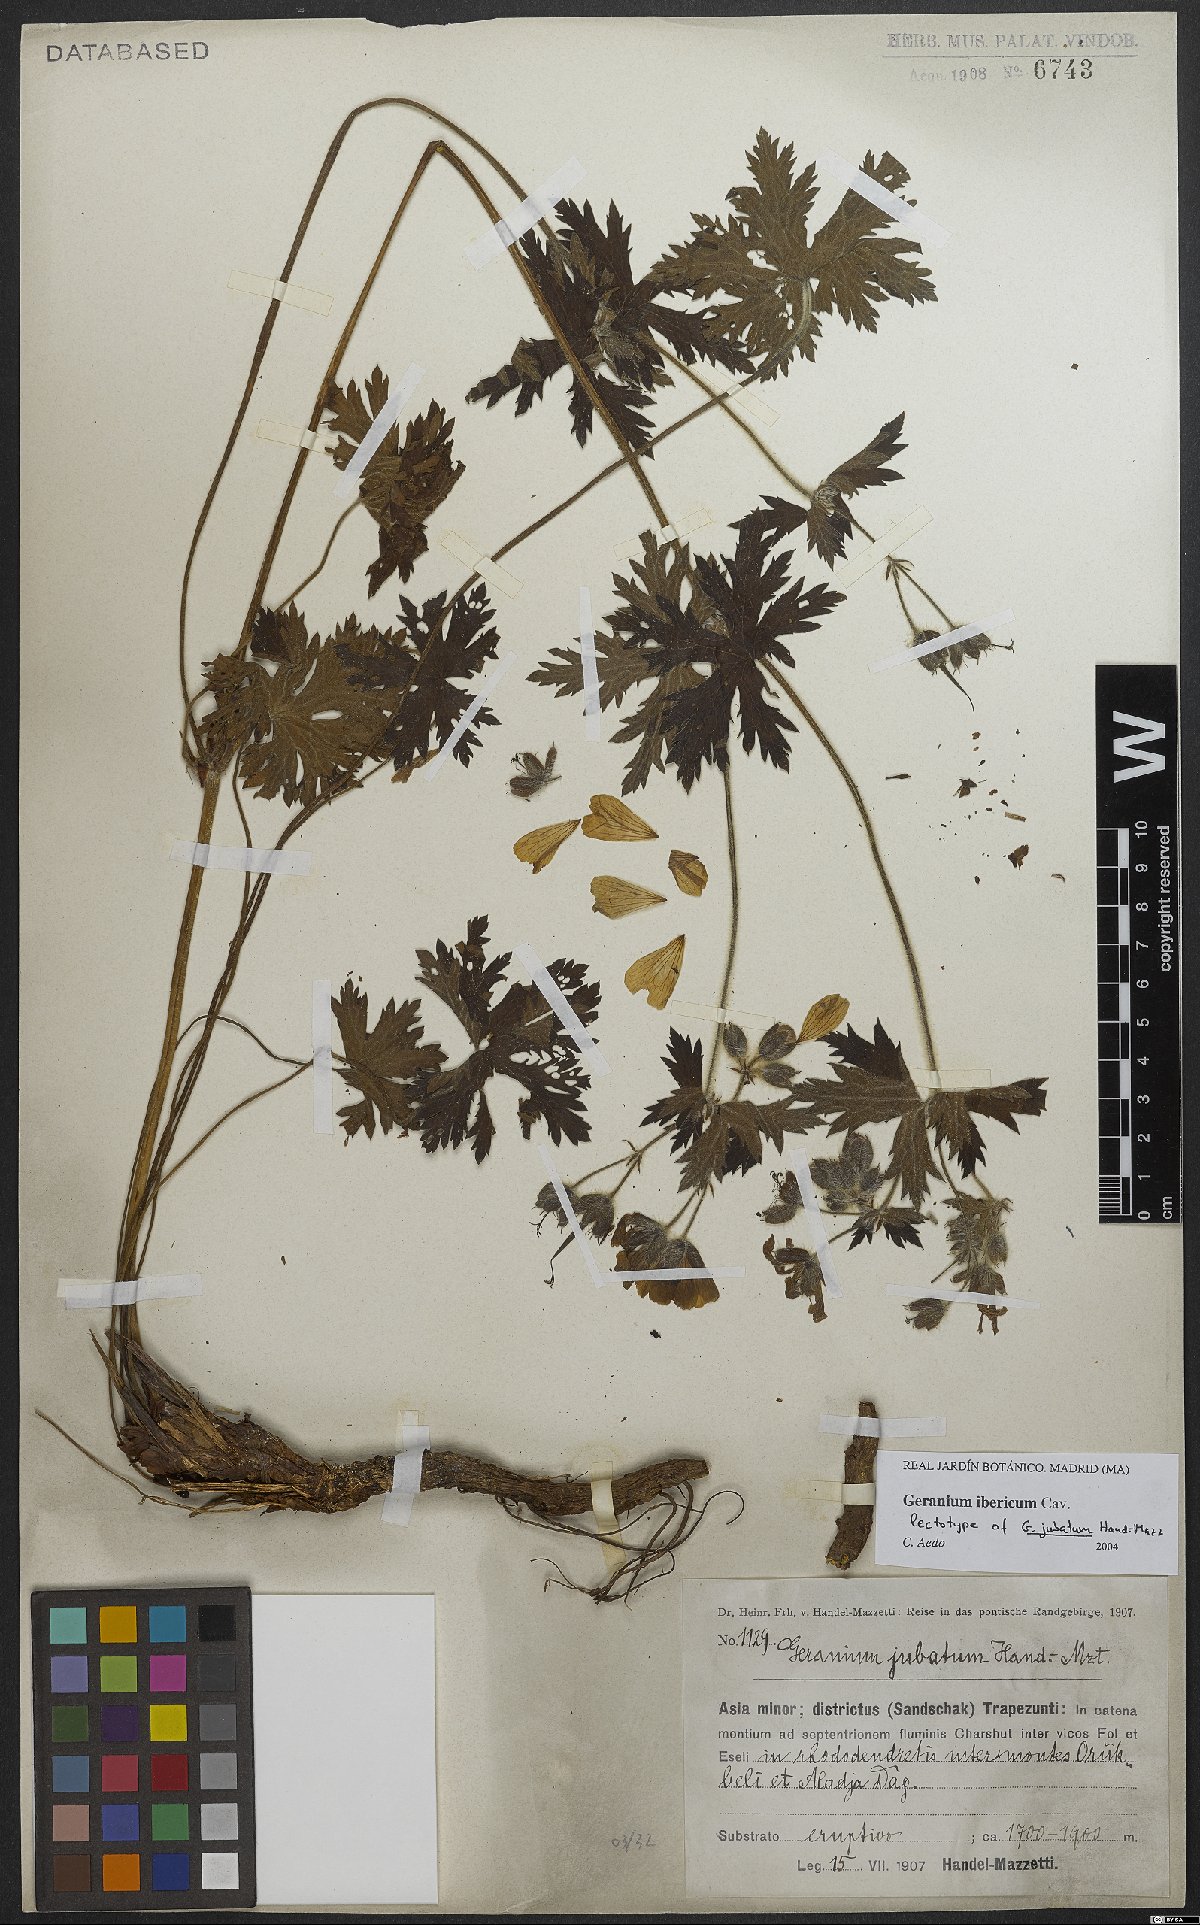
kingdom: Plantae
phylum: Tracheophyta
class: Magnoliopsida
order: Geraniales
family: Geraniaceae
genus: Geranium
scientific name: Geranium ibericum
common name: Caucasian crane's-bill
